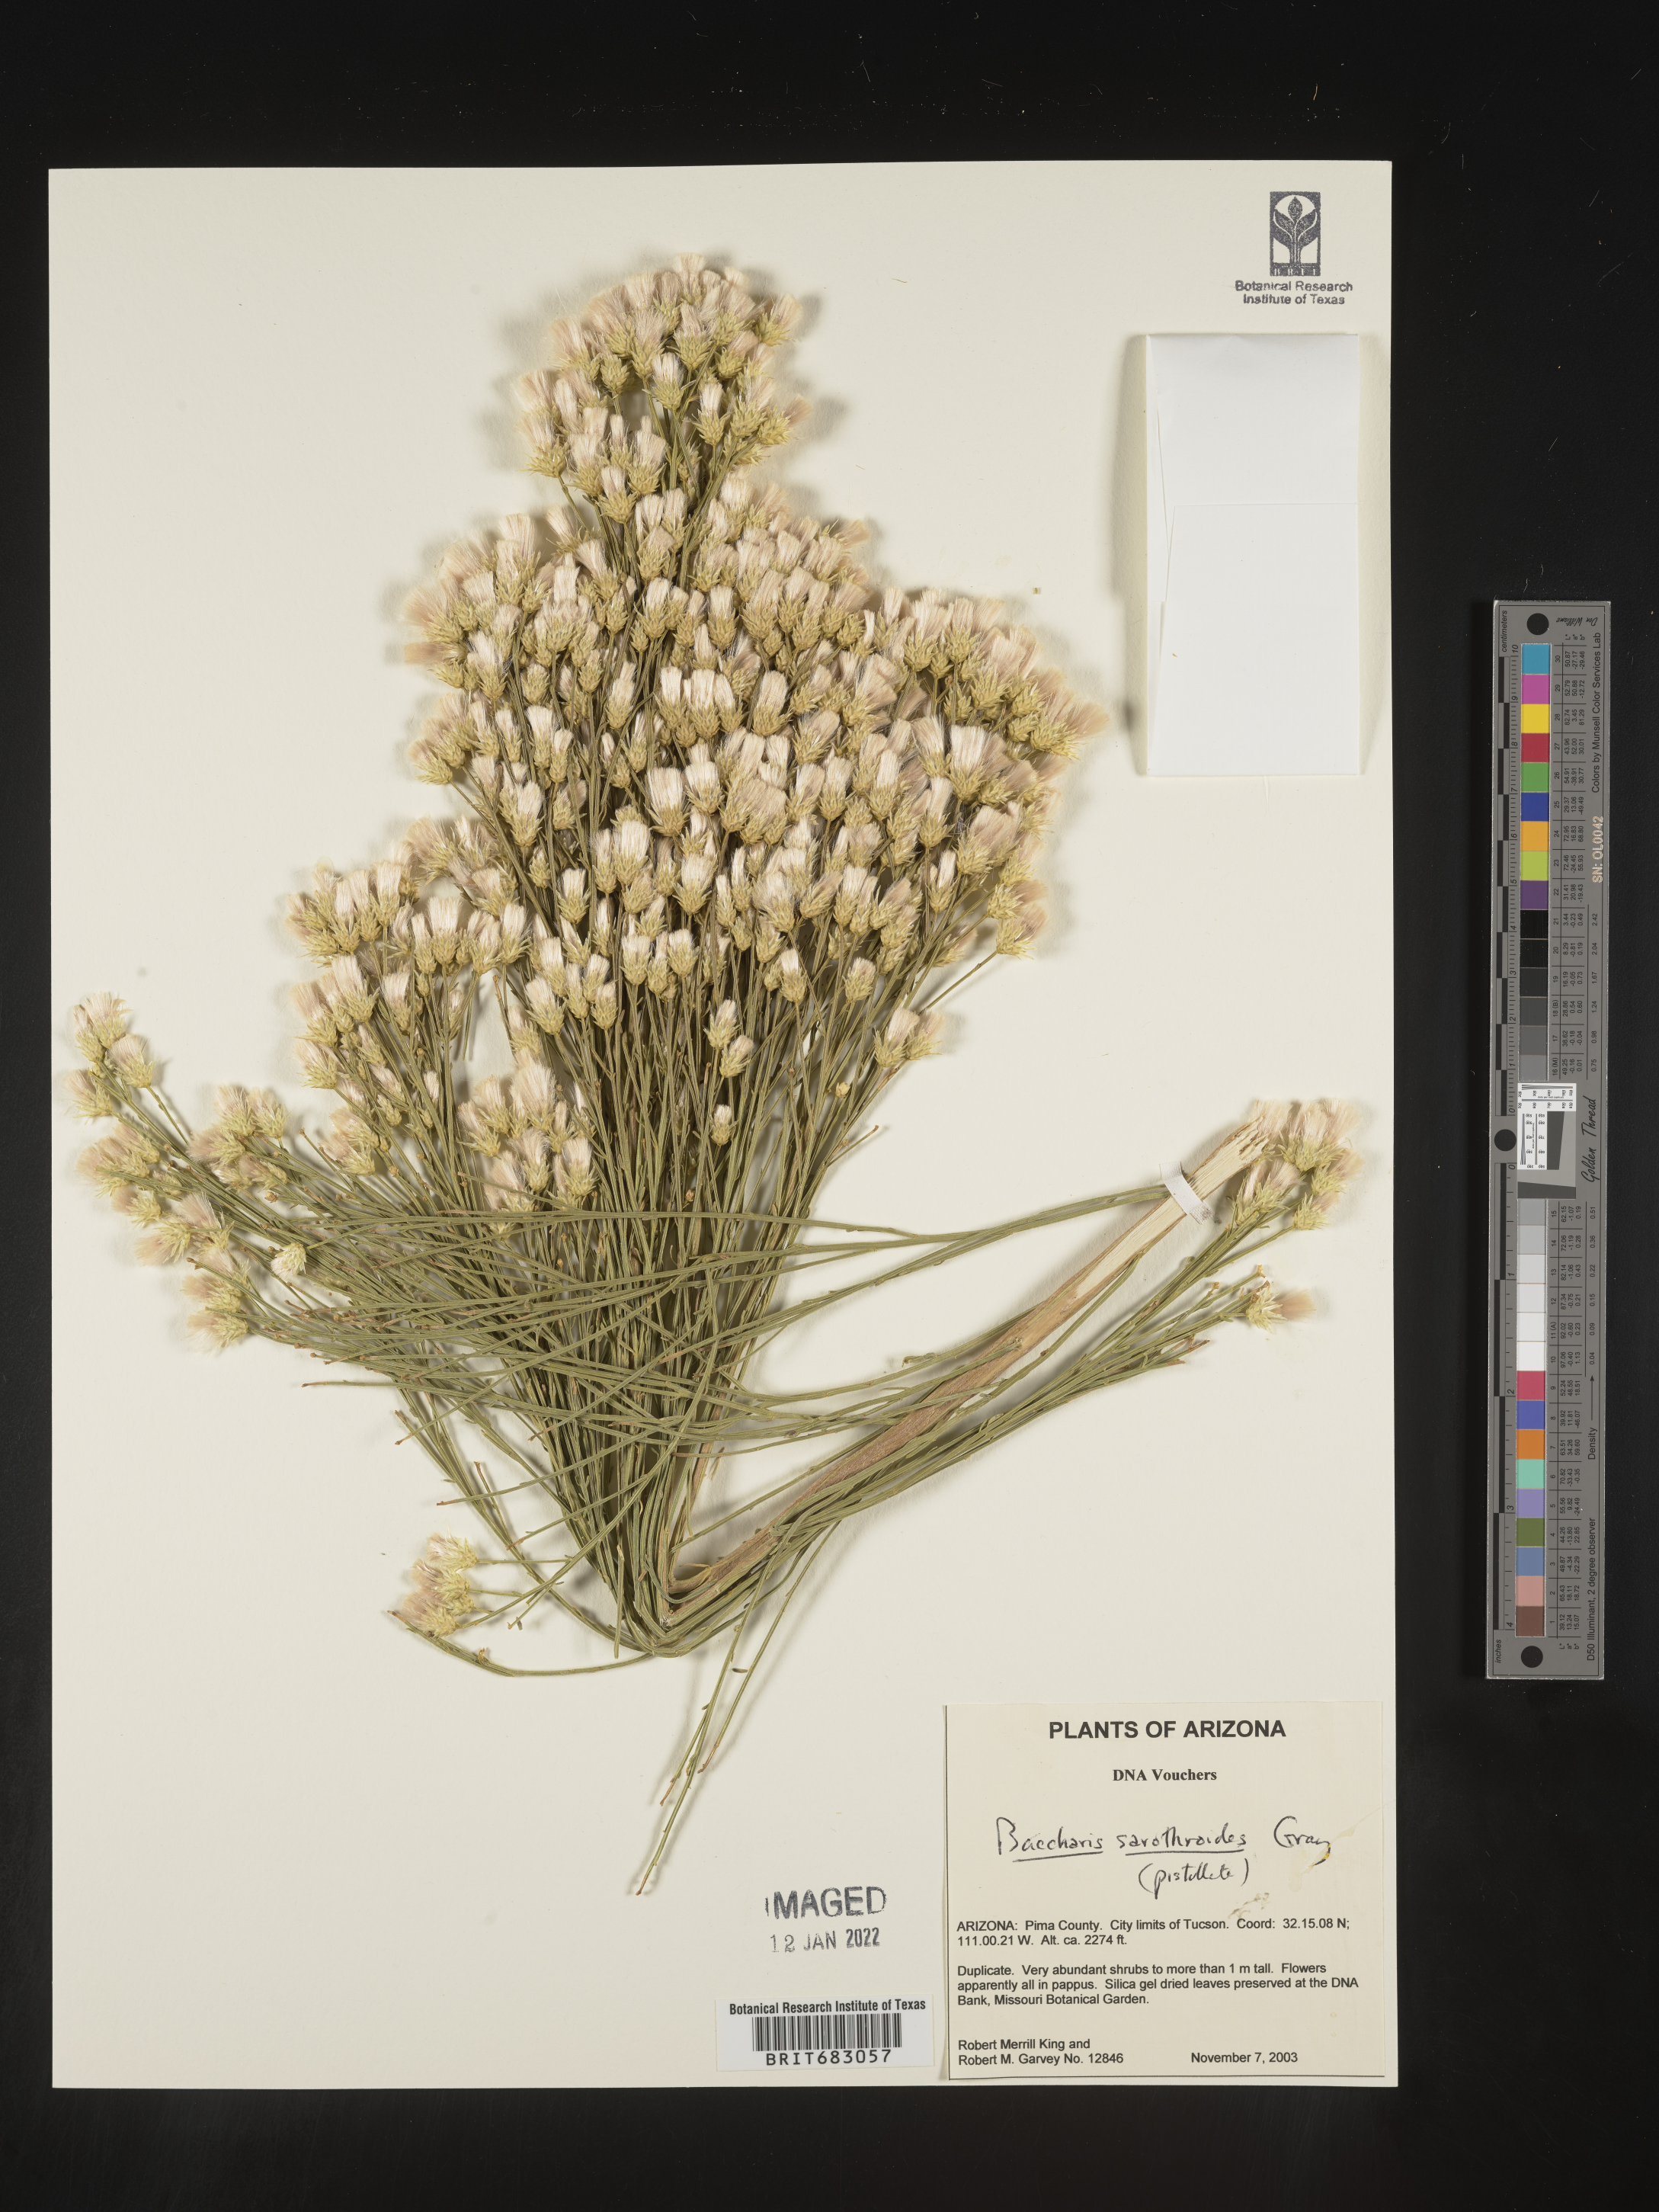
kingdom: Plantae
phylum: Tracheophyta
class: Magnoliopsida
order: Asterales
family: Asteraceae
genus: Baccharis
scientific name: Baccharis sarothroides
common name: Desert-broom
